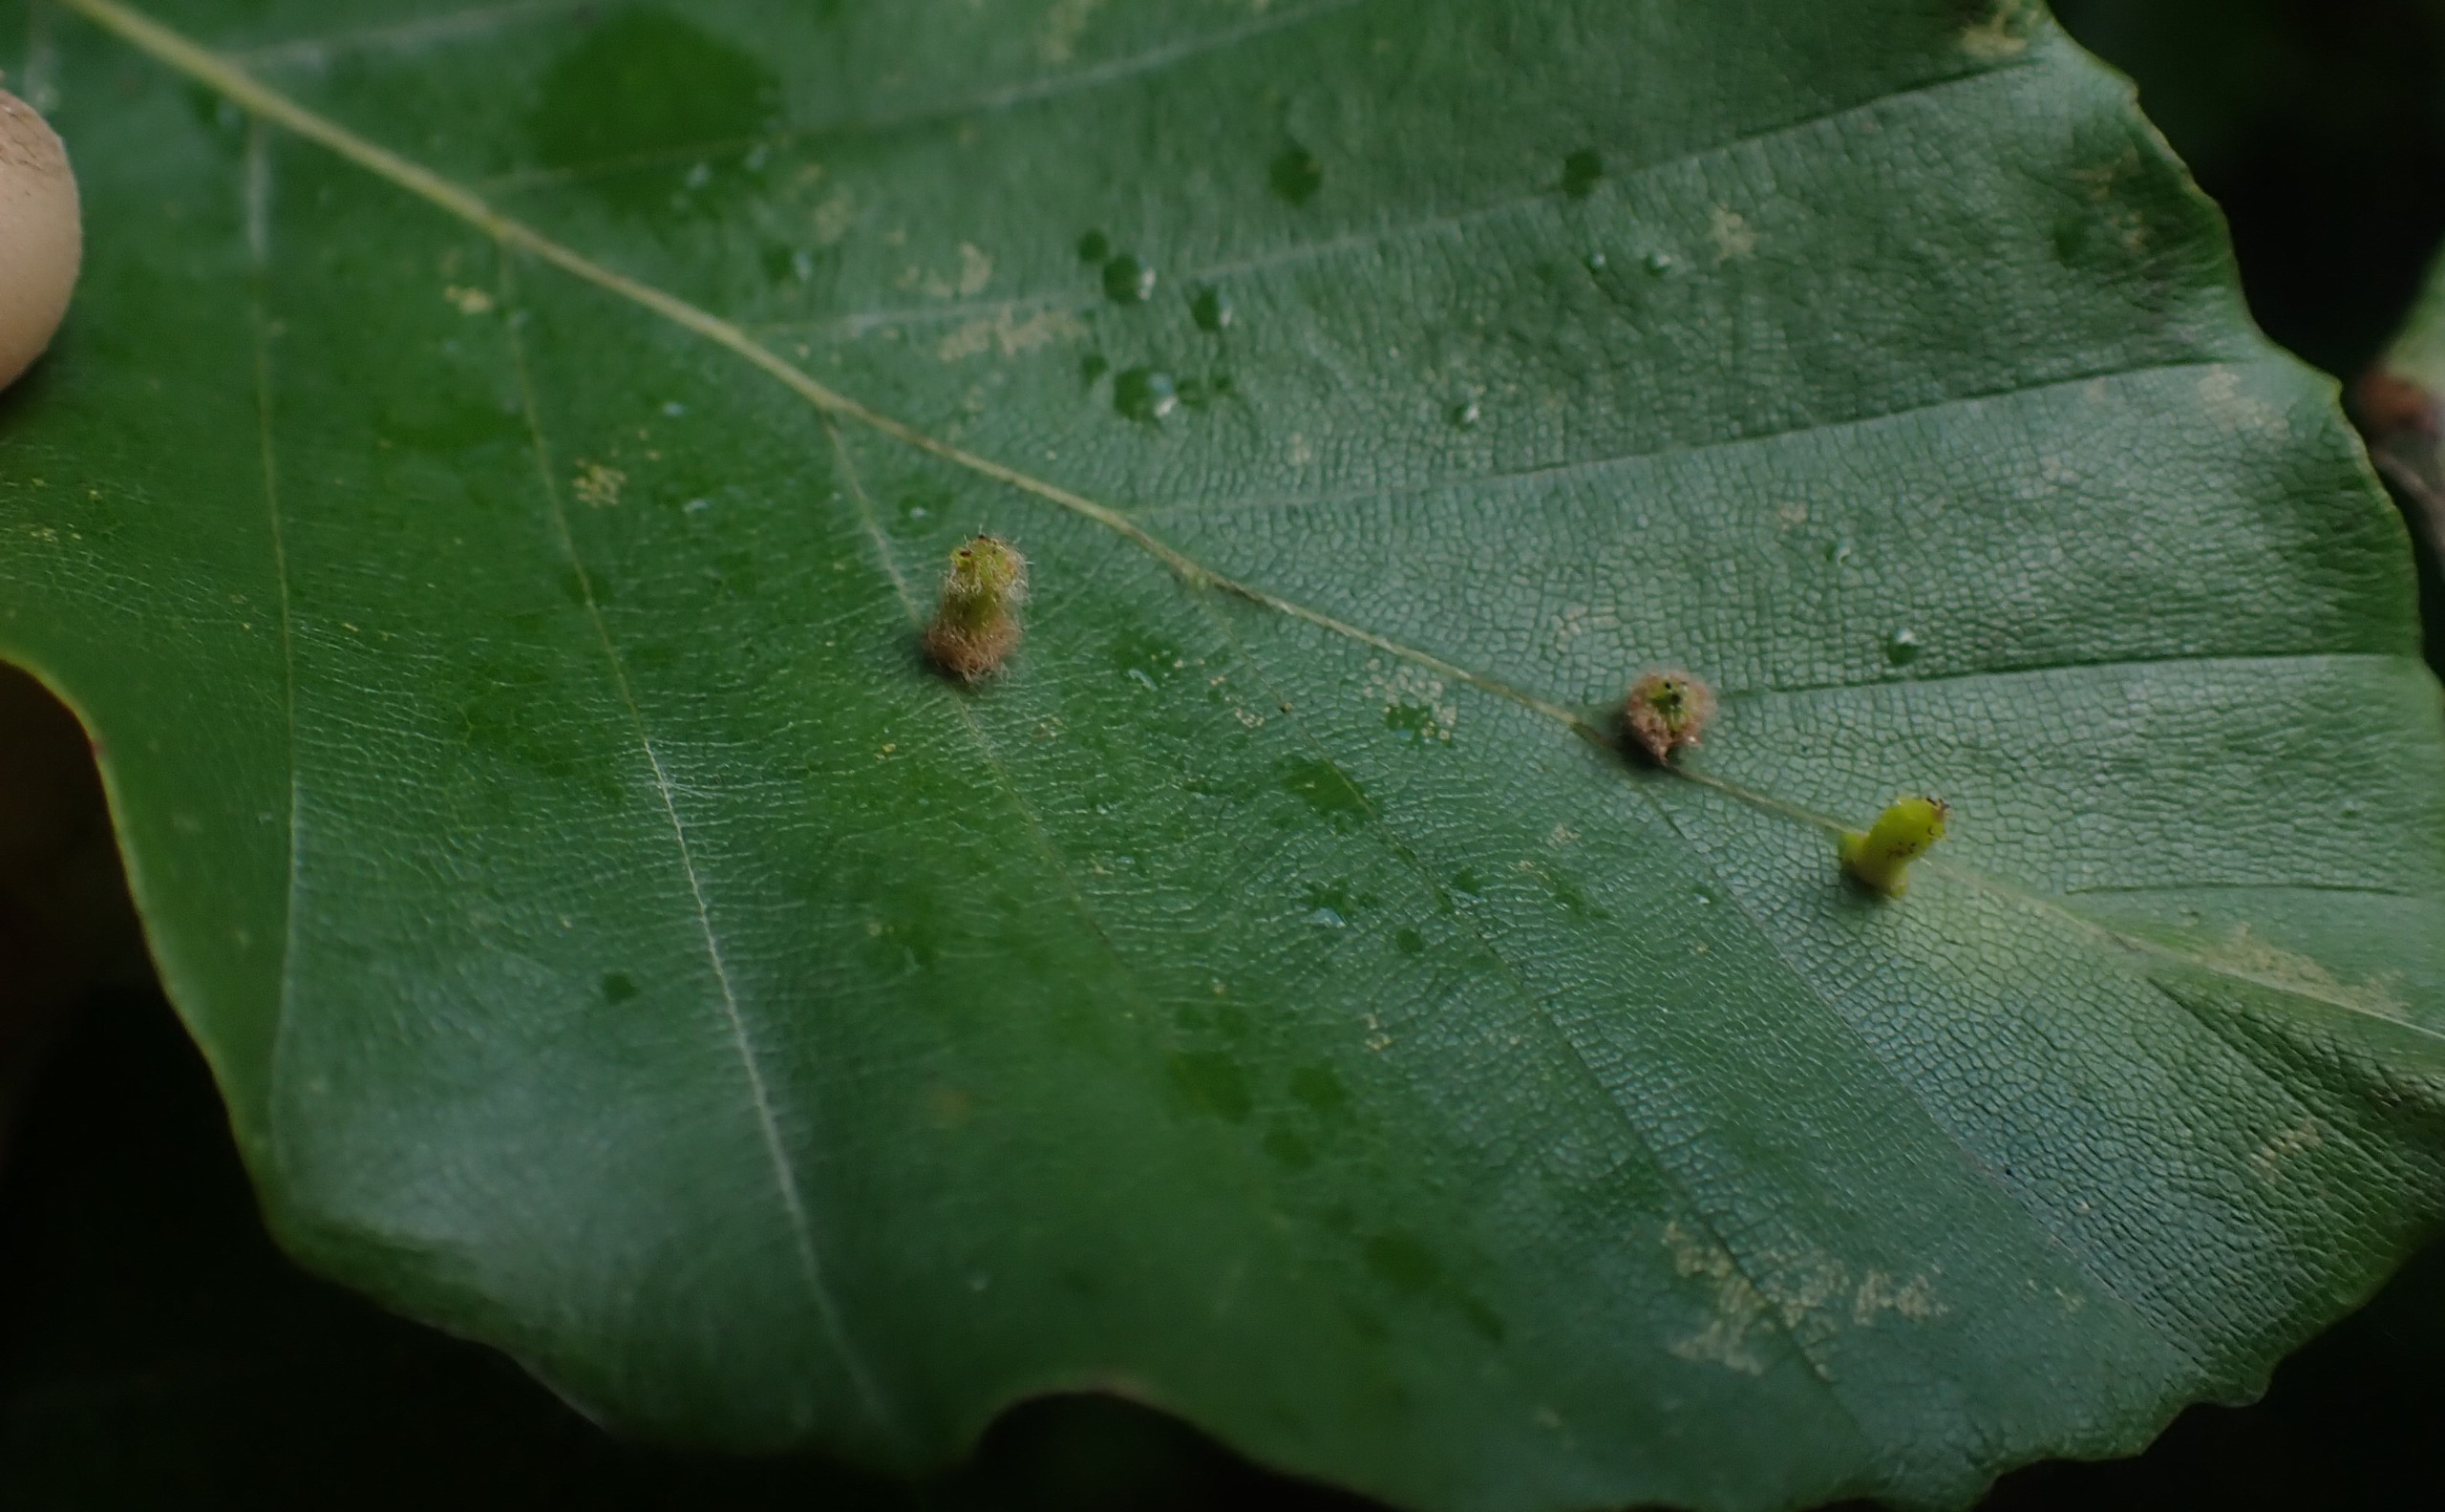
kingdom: Animalia
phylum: Arthropoda
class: Insecta
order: Diptera
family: Cecidomyiidae
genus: Hartigiola
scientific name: Hartigiola annulipes
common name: Skovtroldegalmyg
